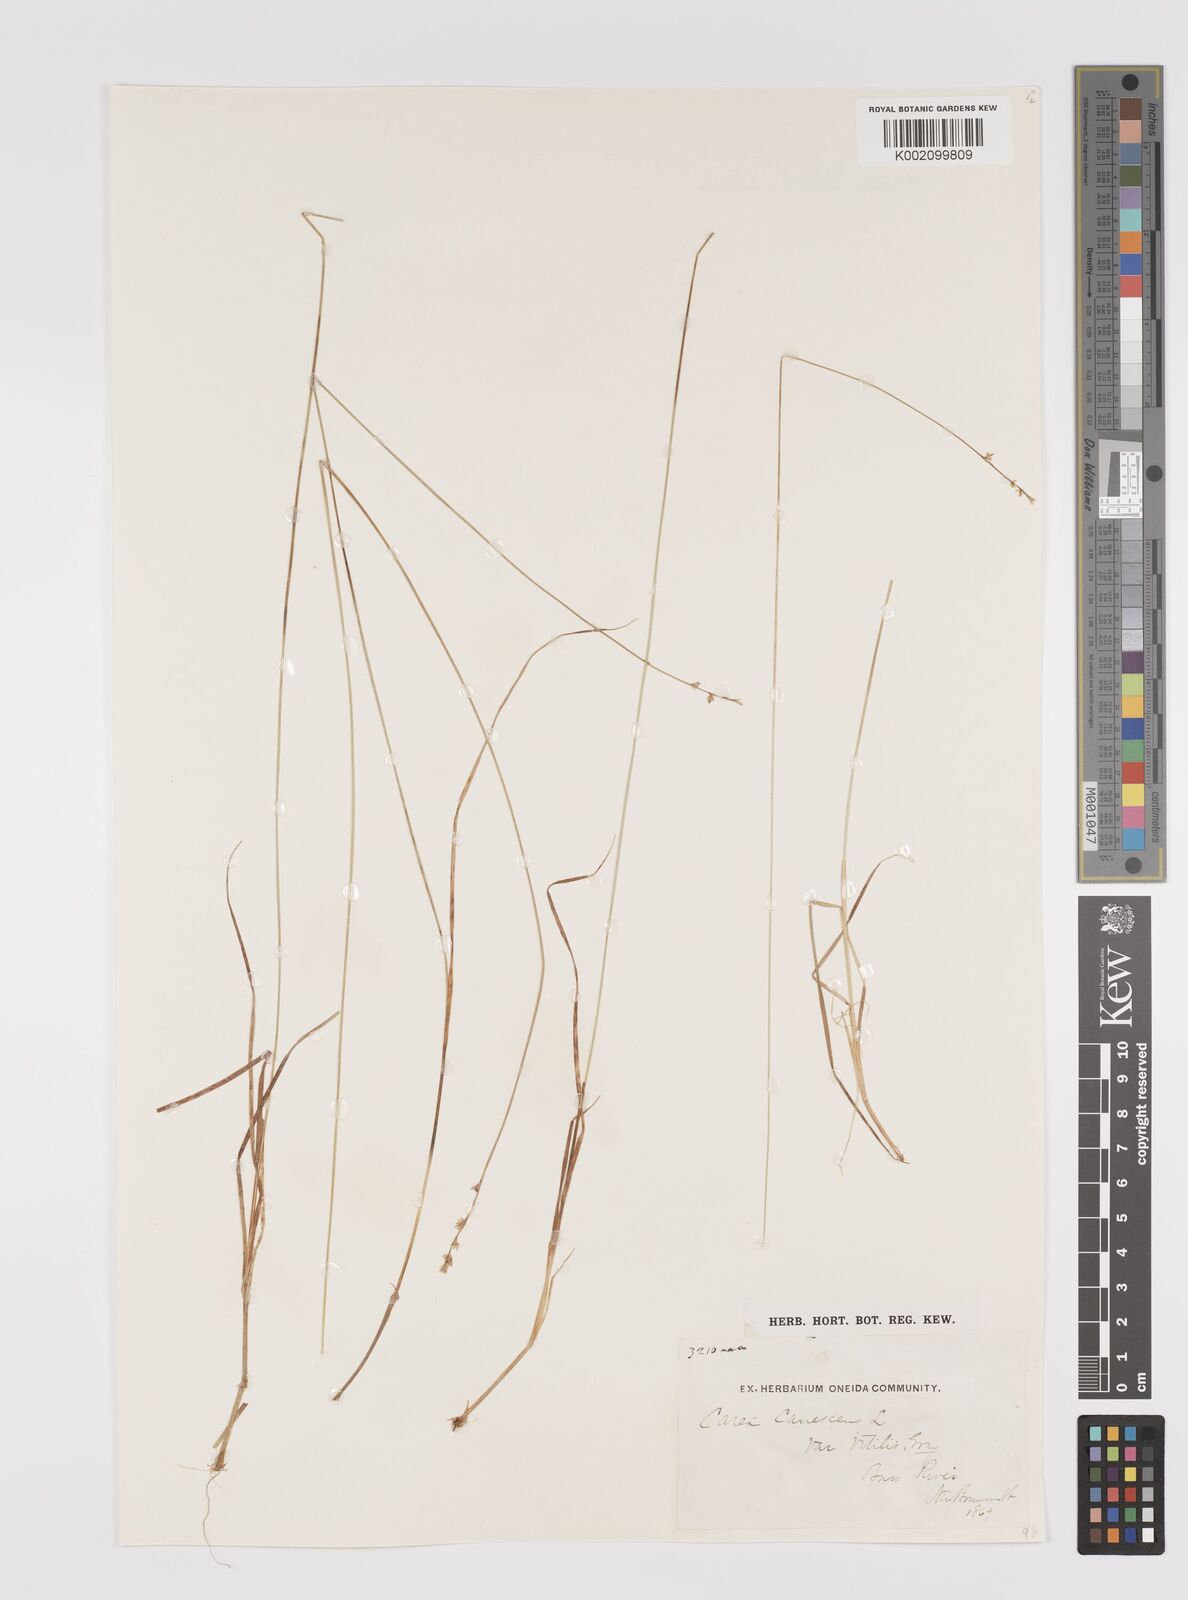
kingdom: Plantae
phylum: Tracheophyta
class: Liliopsida
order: Poales
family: Cyperaceae
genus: Carex
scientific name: Carex curta
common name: White sedge
